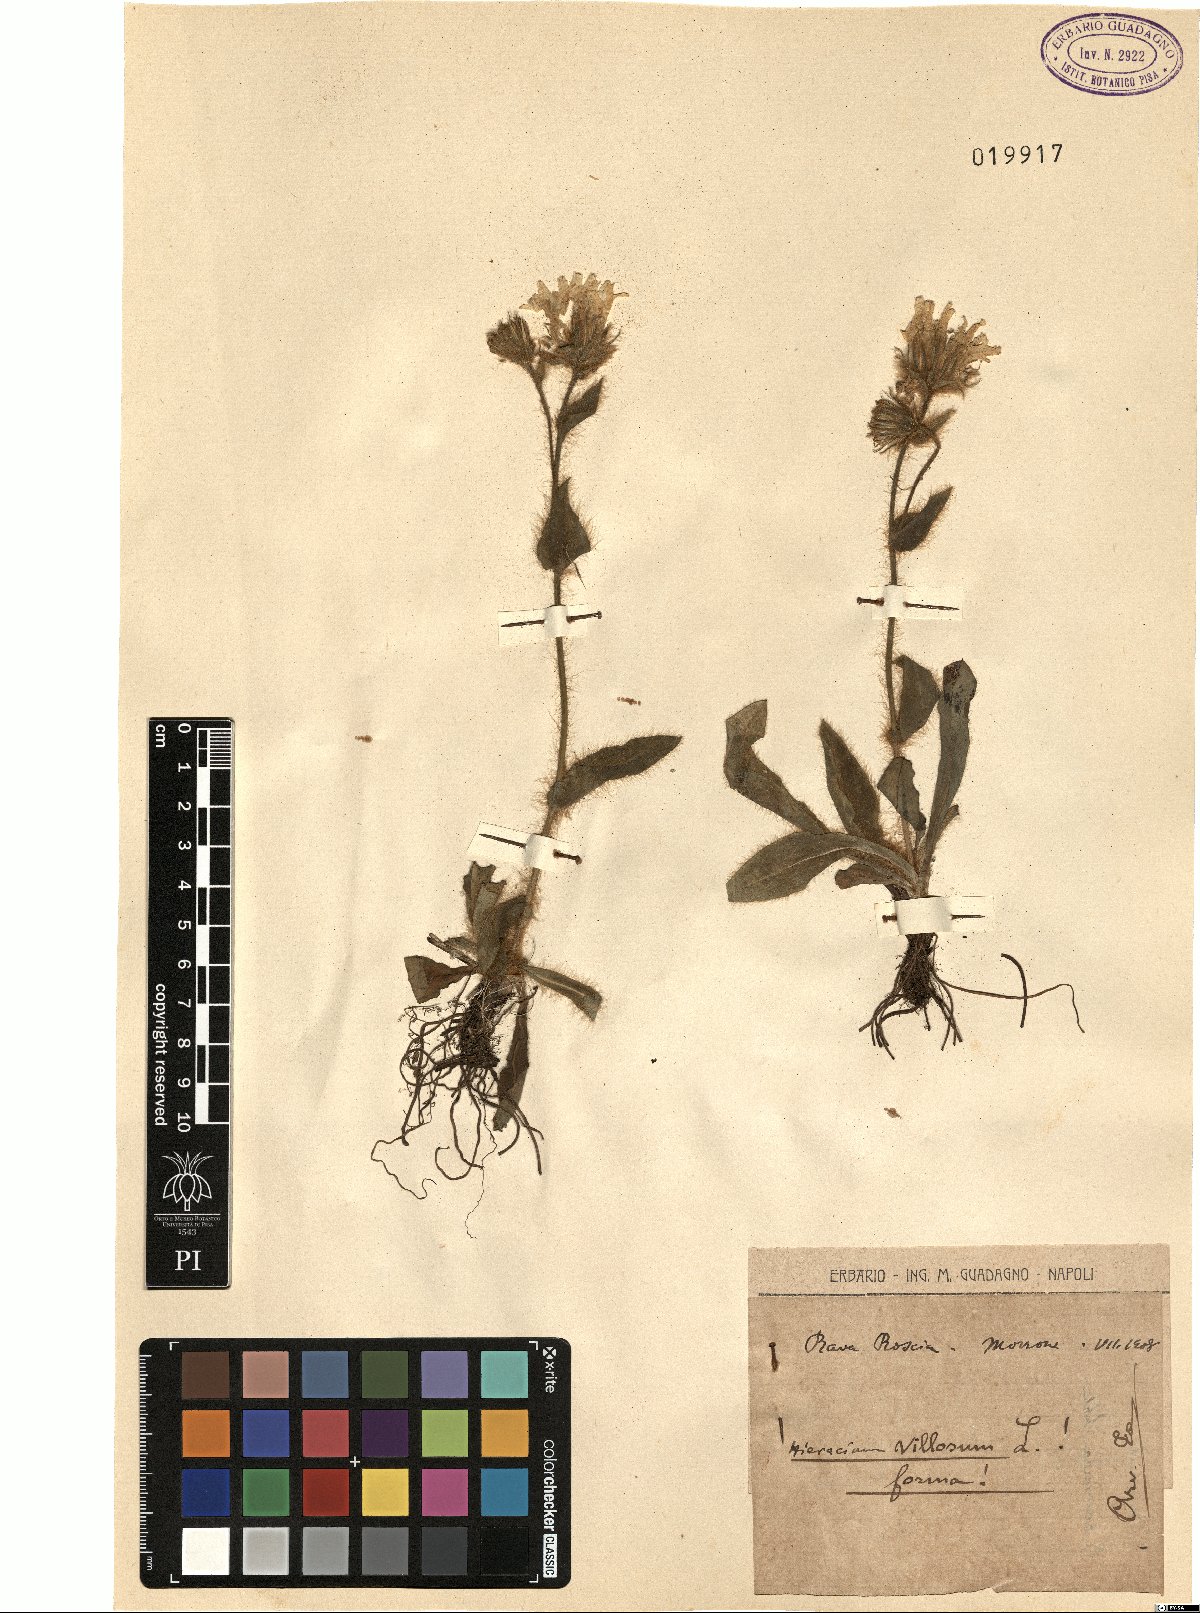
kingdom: Plantae
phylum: Tracheophyta
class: Magnoliopsida
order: Asterales
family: Asteraceae
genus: Hieracium
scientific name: Hieracium villosum
